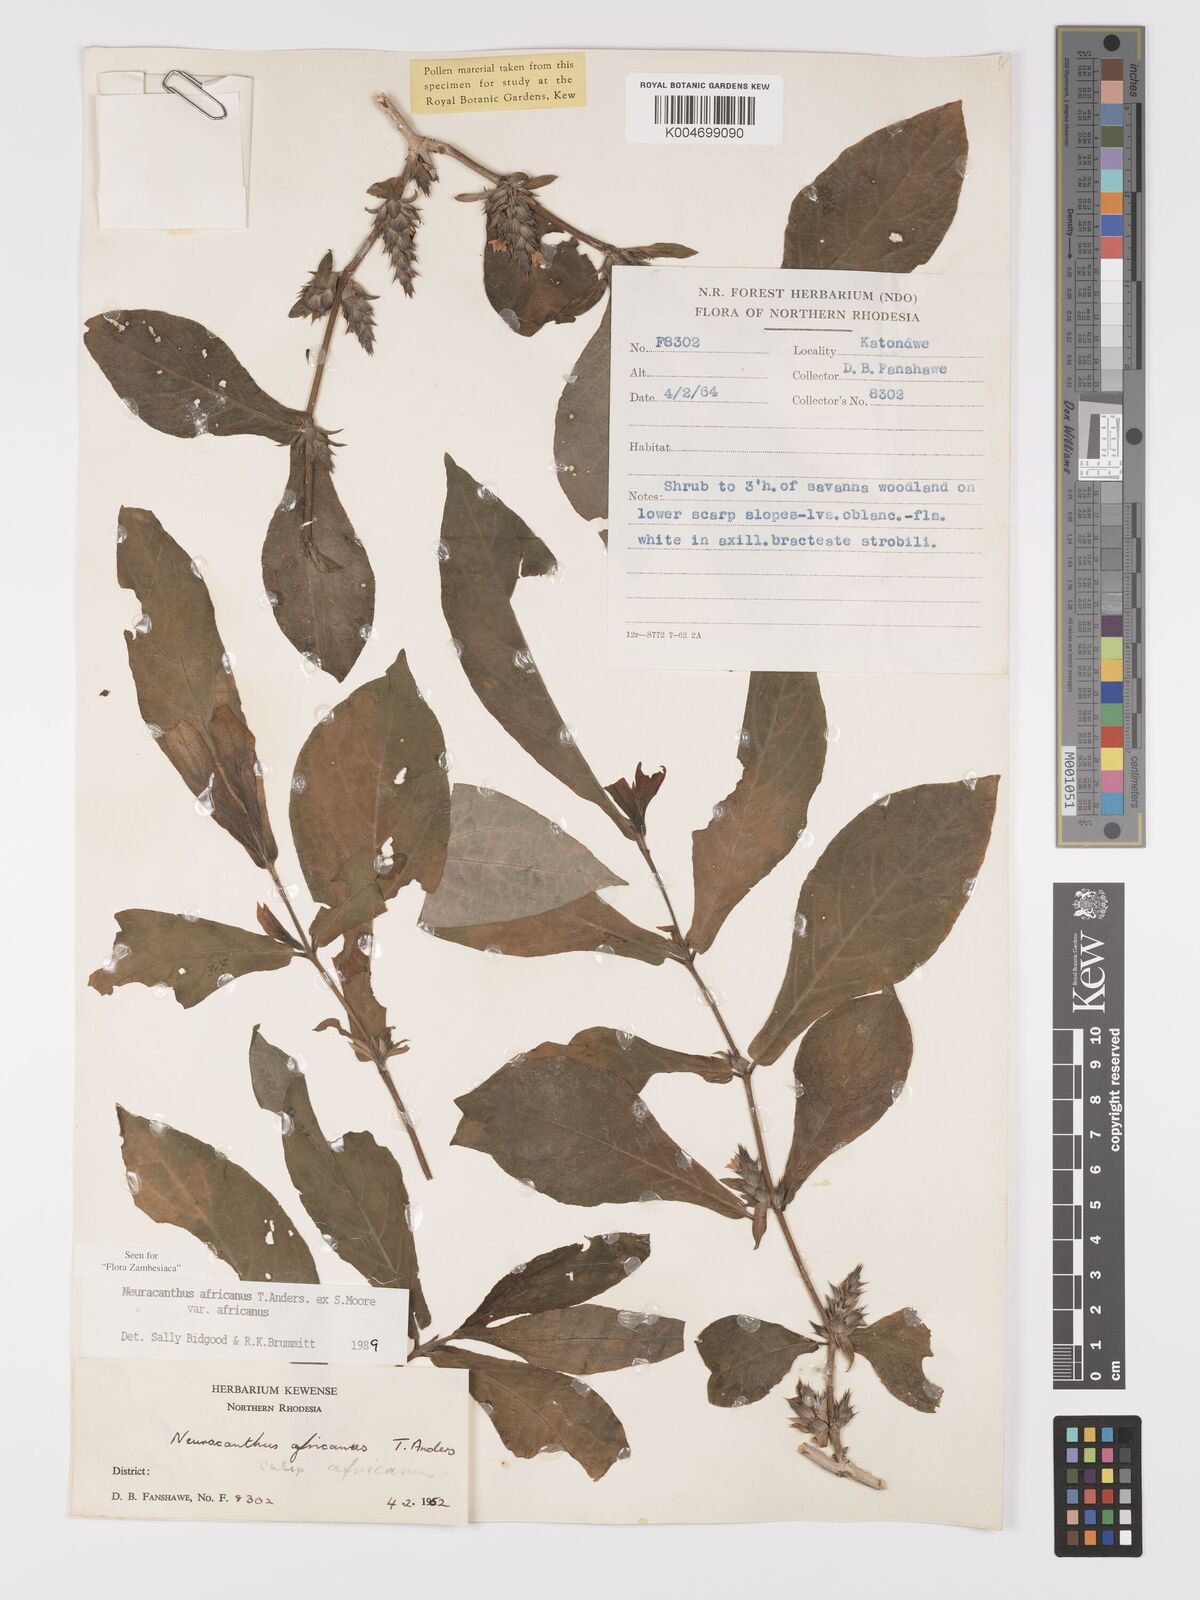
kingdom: Plantae
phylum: Tracheophyta
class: Magnoliopsida
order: Lamiales
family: Acanthaceae
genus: Neuracanthus
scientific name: Neuracanthus africanus
